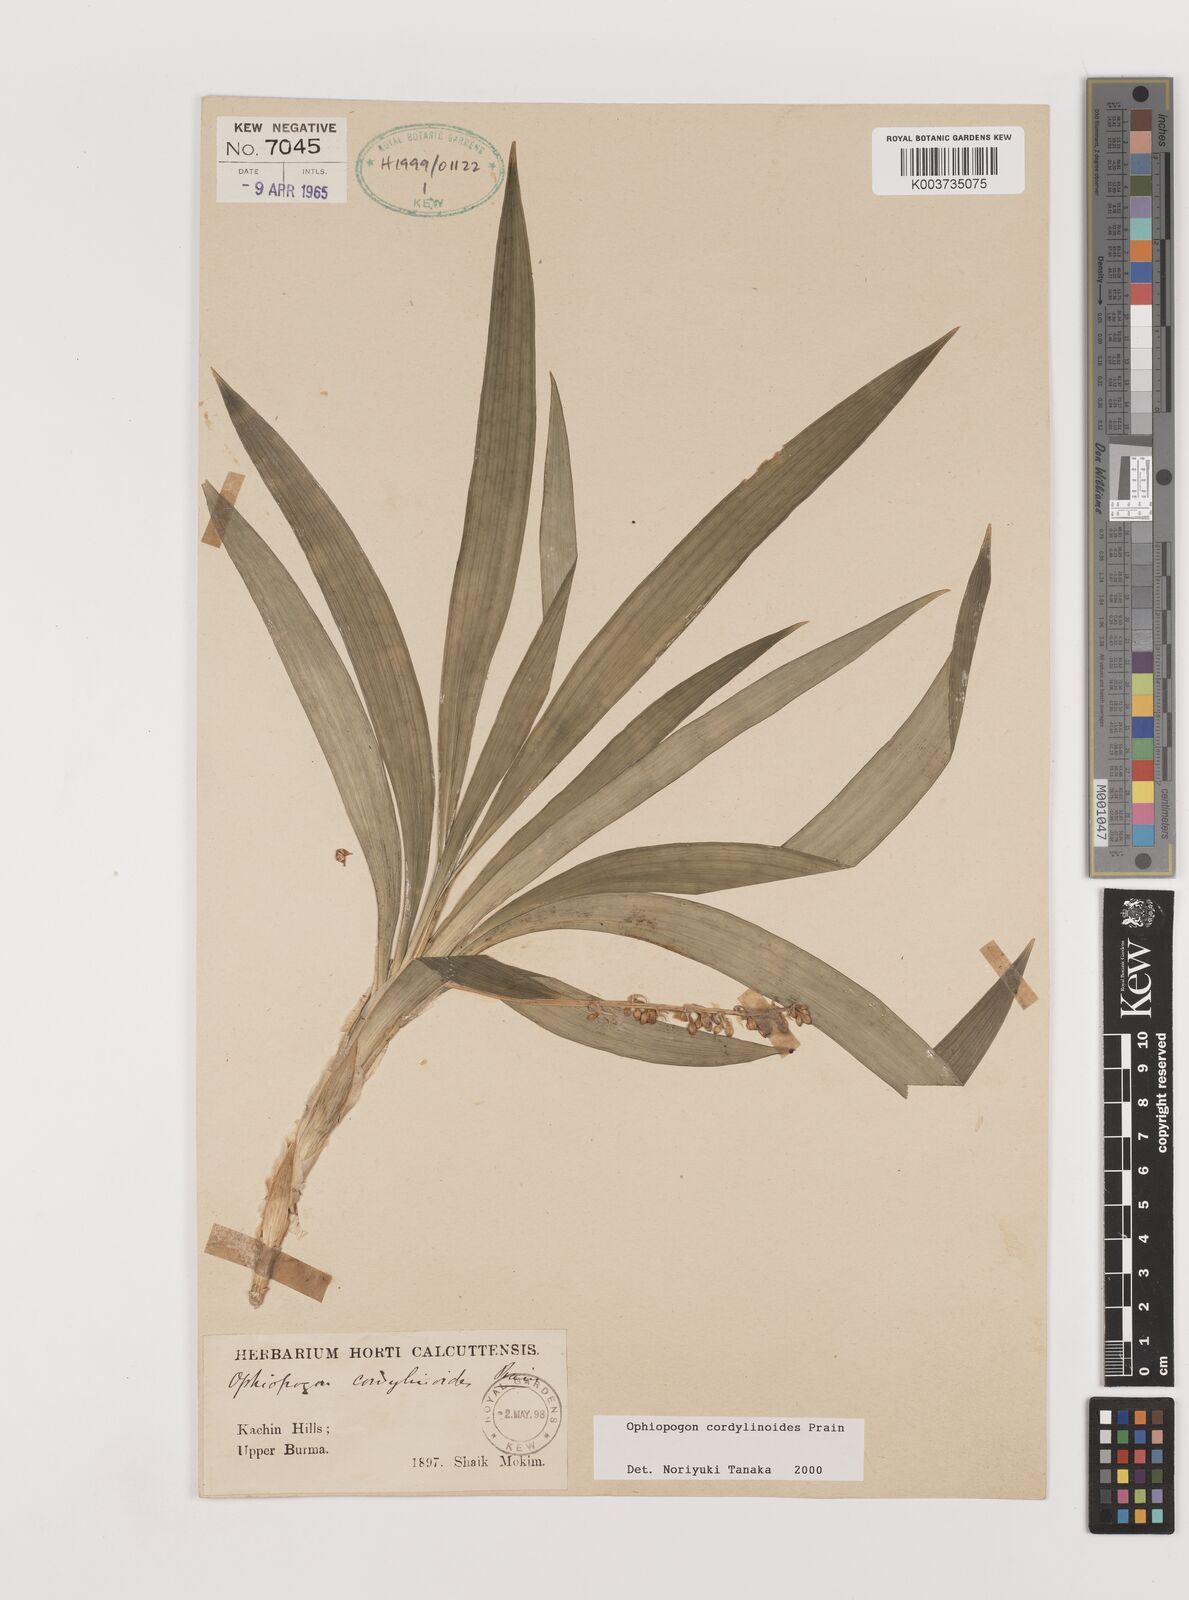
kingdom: Plantae
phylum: Tracheophyta
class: Liliopsida
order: Asparagales
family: Asparagaceae
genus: Ophiopogon
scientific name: Ophiopogon cordylinoides
